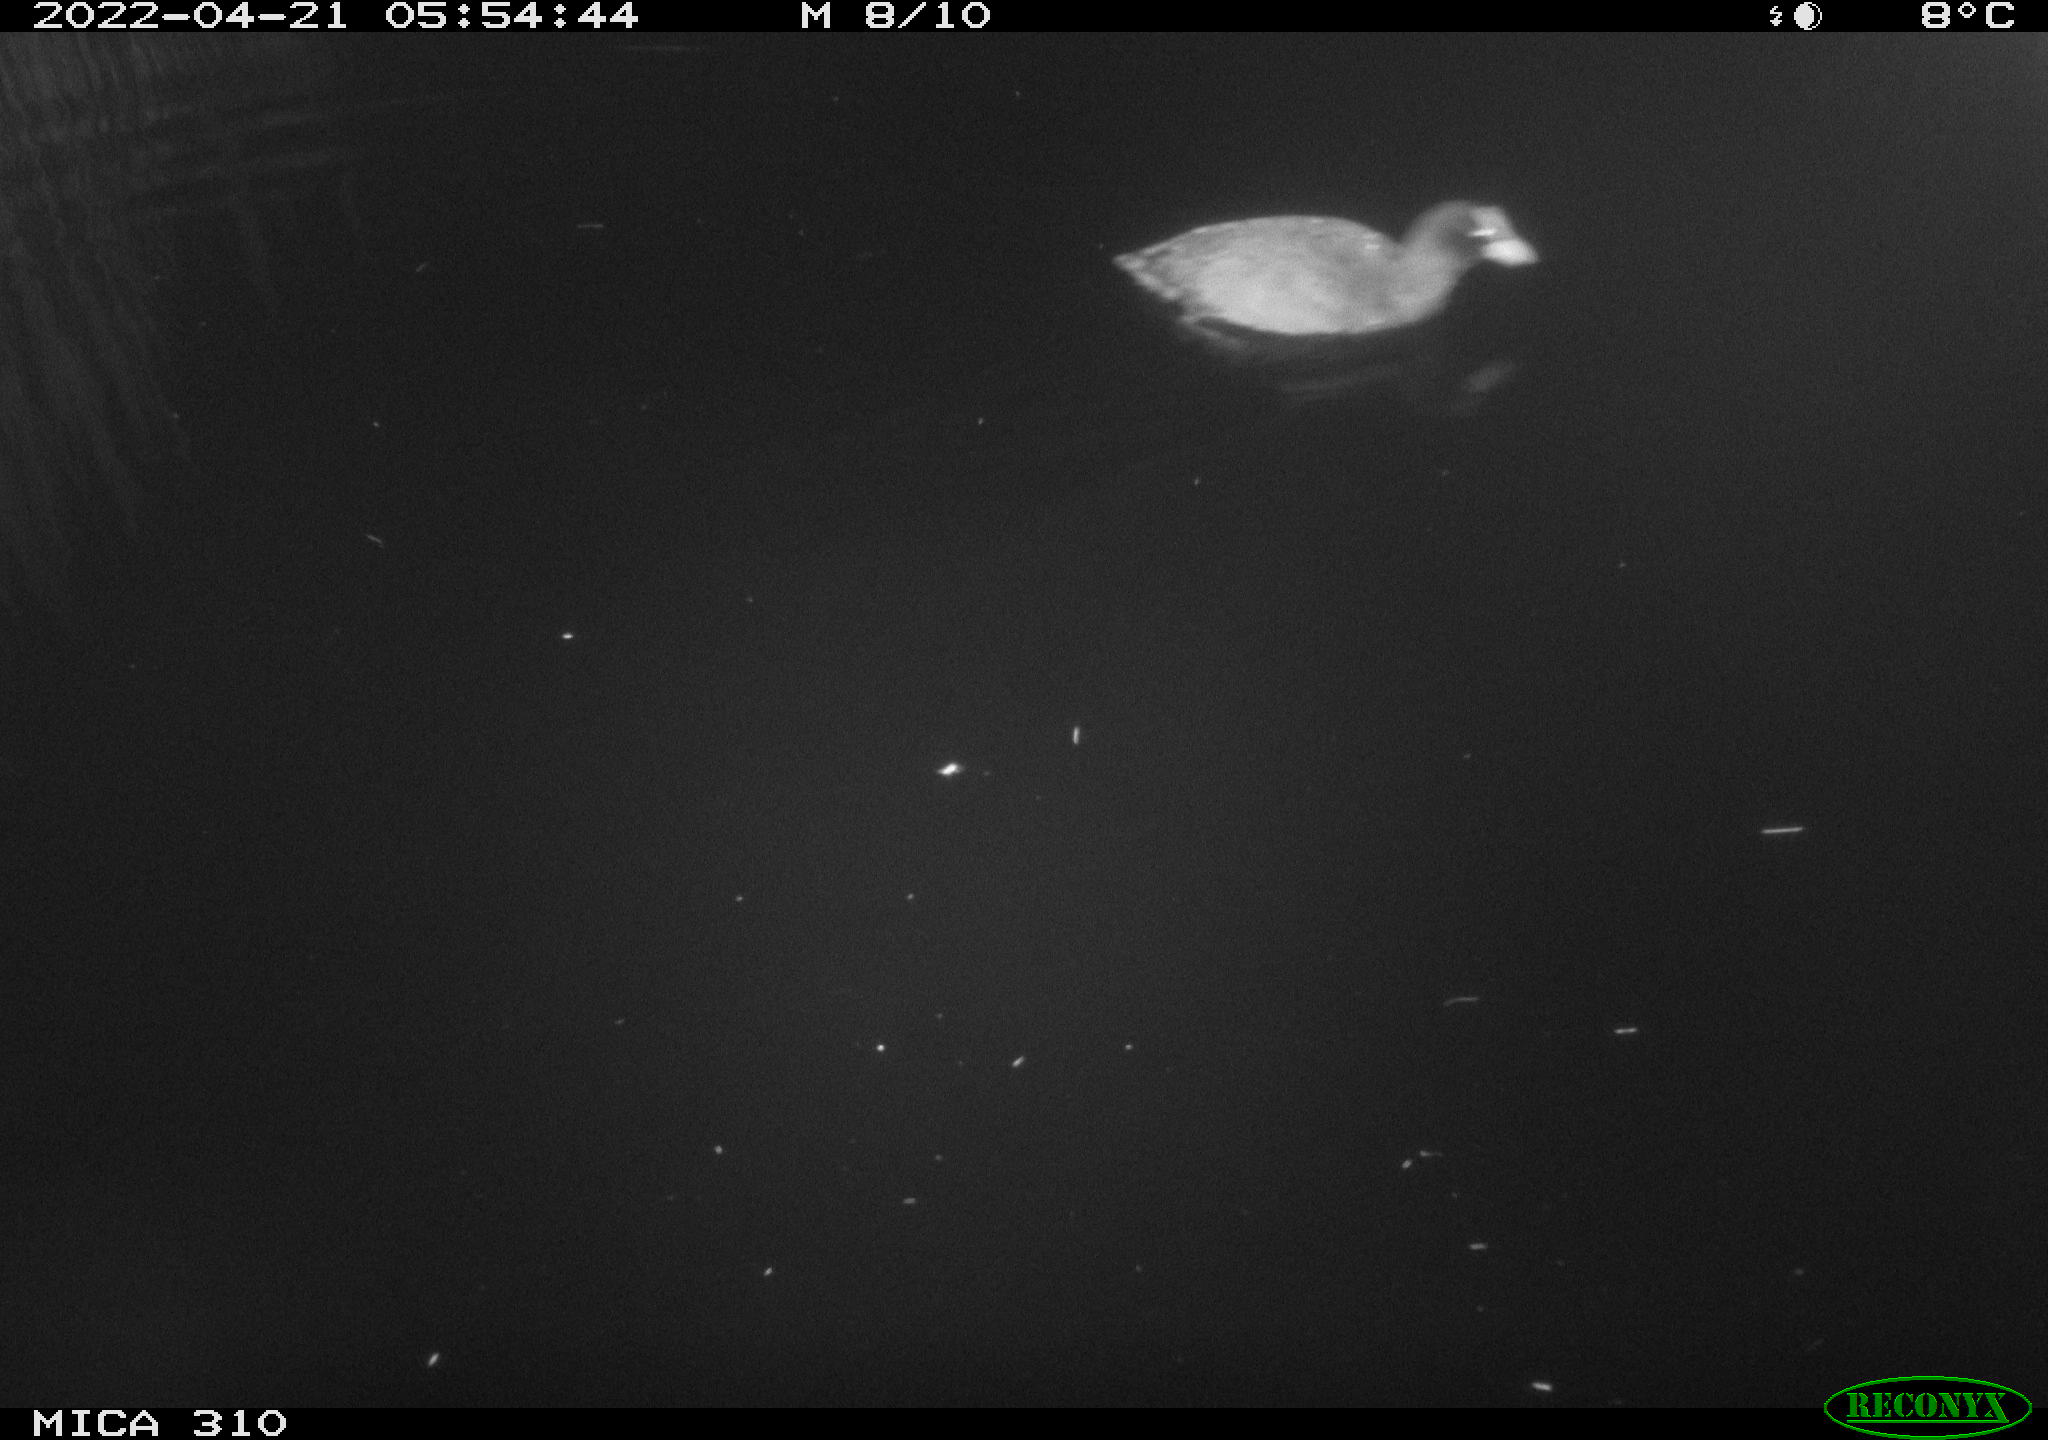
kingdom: Animalia
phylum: Chordata
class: Aves
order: Gruiformes
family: Rallidae
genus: Fulica
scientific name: Fulica atra
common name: Eurasian coot
